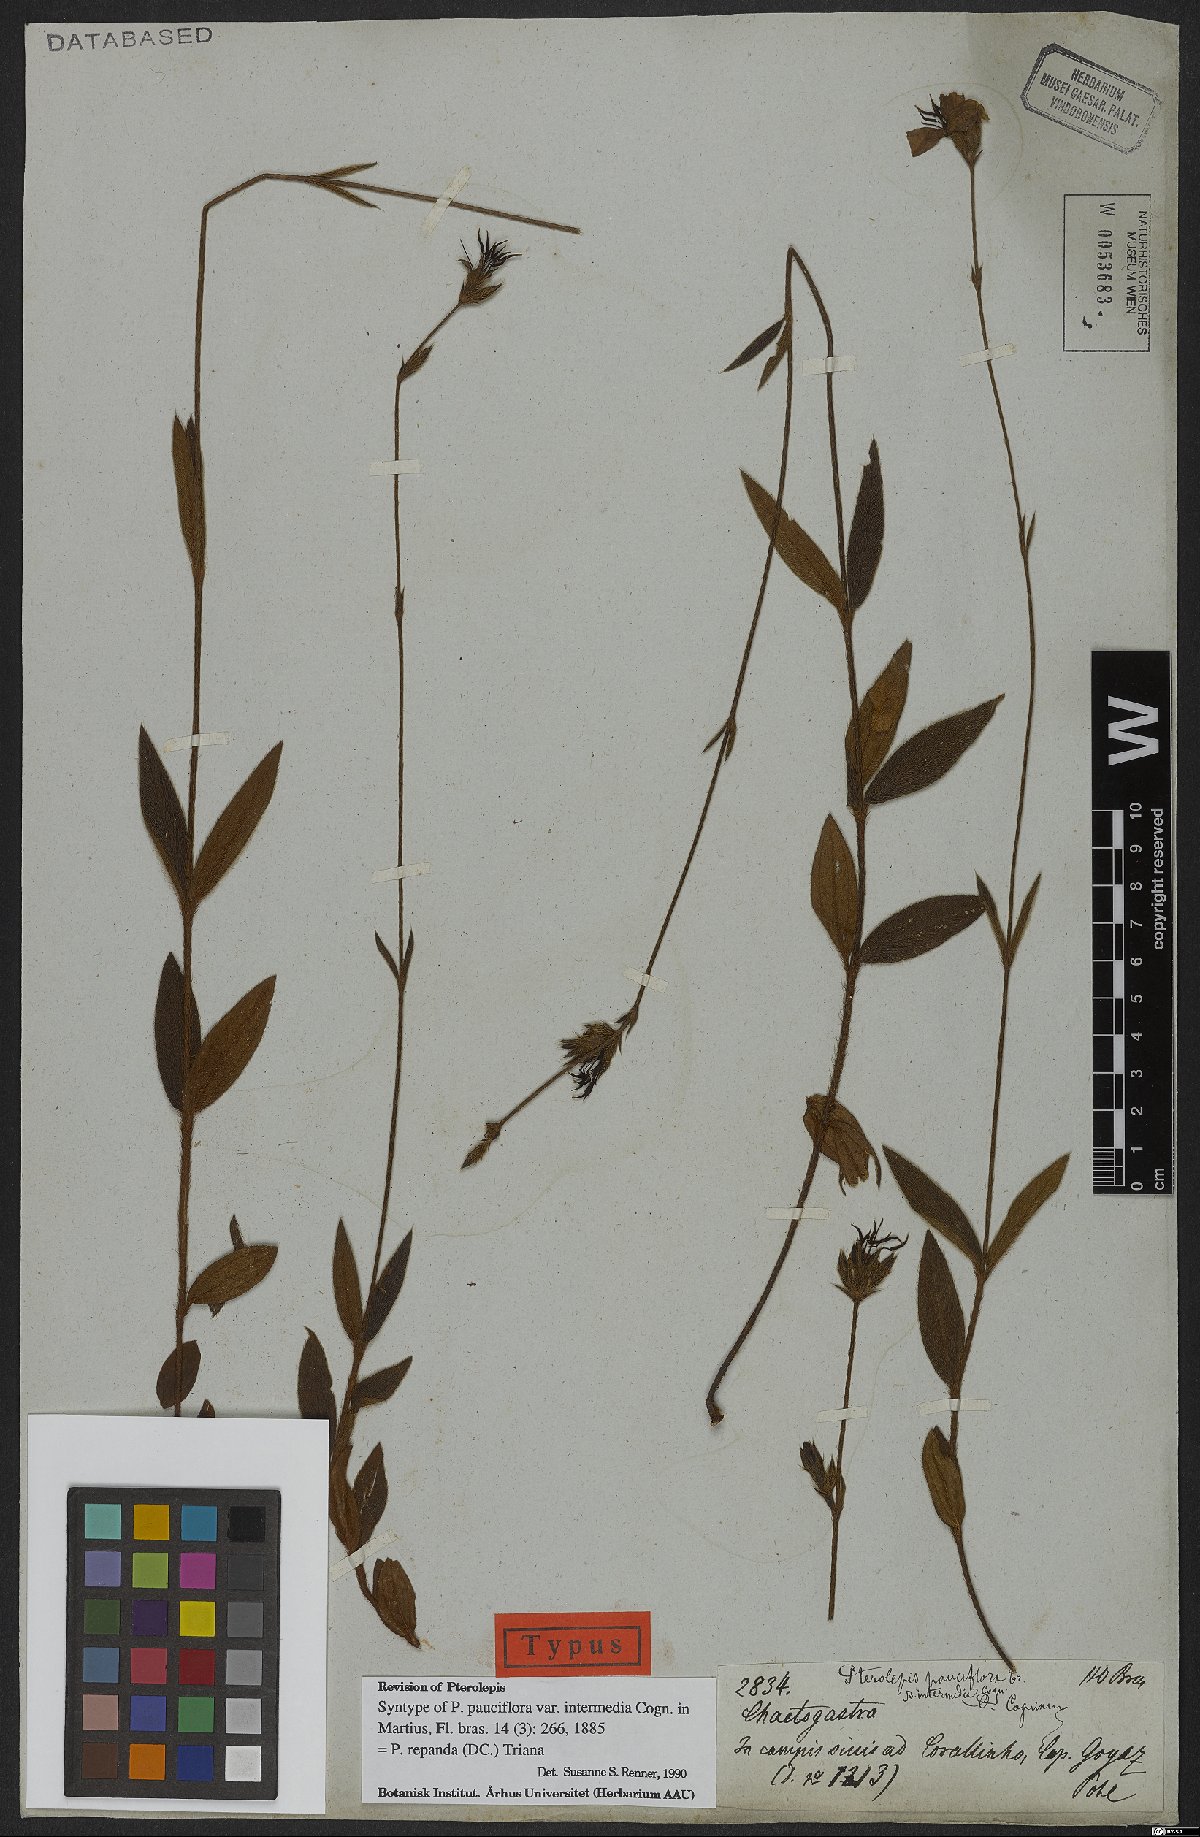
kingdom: Plantae
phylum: Tracheophyta
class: Magnoliopsida
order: Myrtales
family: Melastomataceae
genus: Pterolepis
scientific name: Pterolepis repanda
